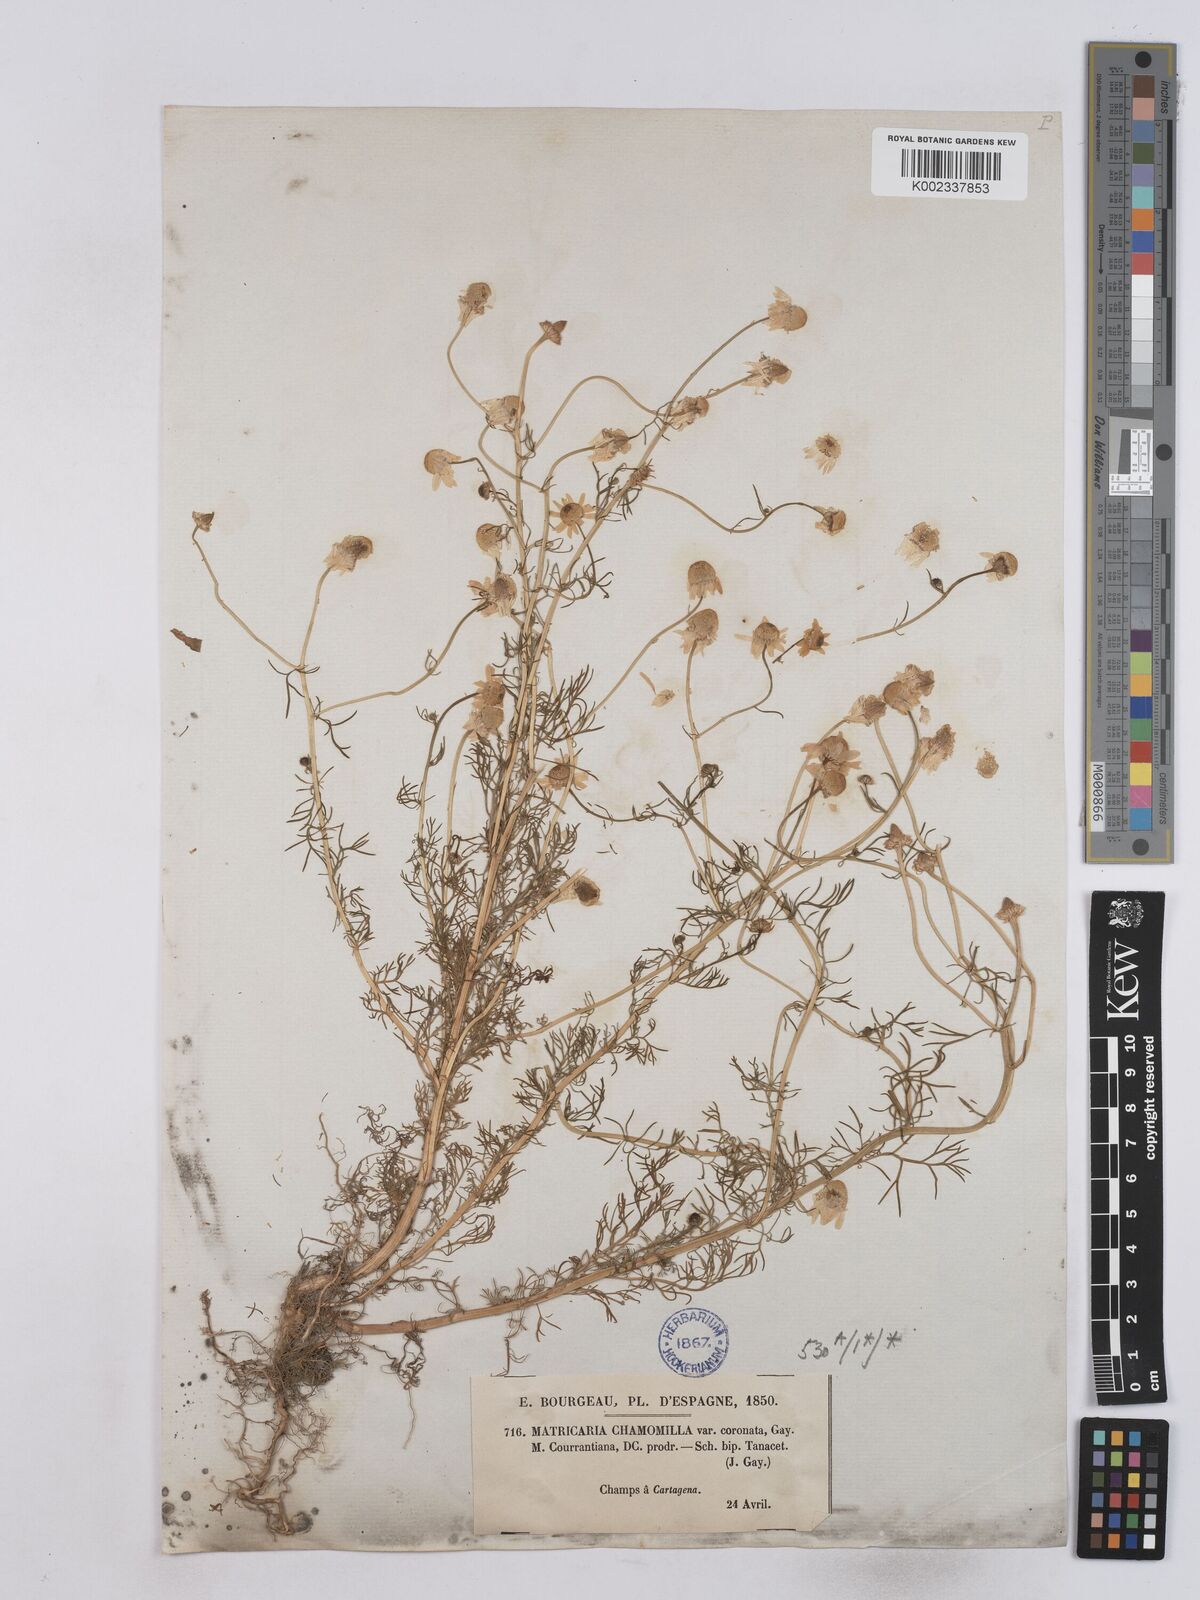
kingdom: Plantae
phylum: Tracheophyta
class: Magnoliopsida
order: Asterales
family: Asteraceae
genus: Matricaria
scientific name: Matricaria chamomilla
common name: Scented mayweed
